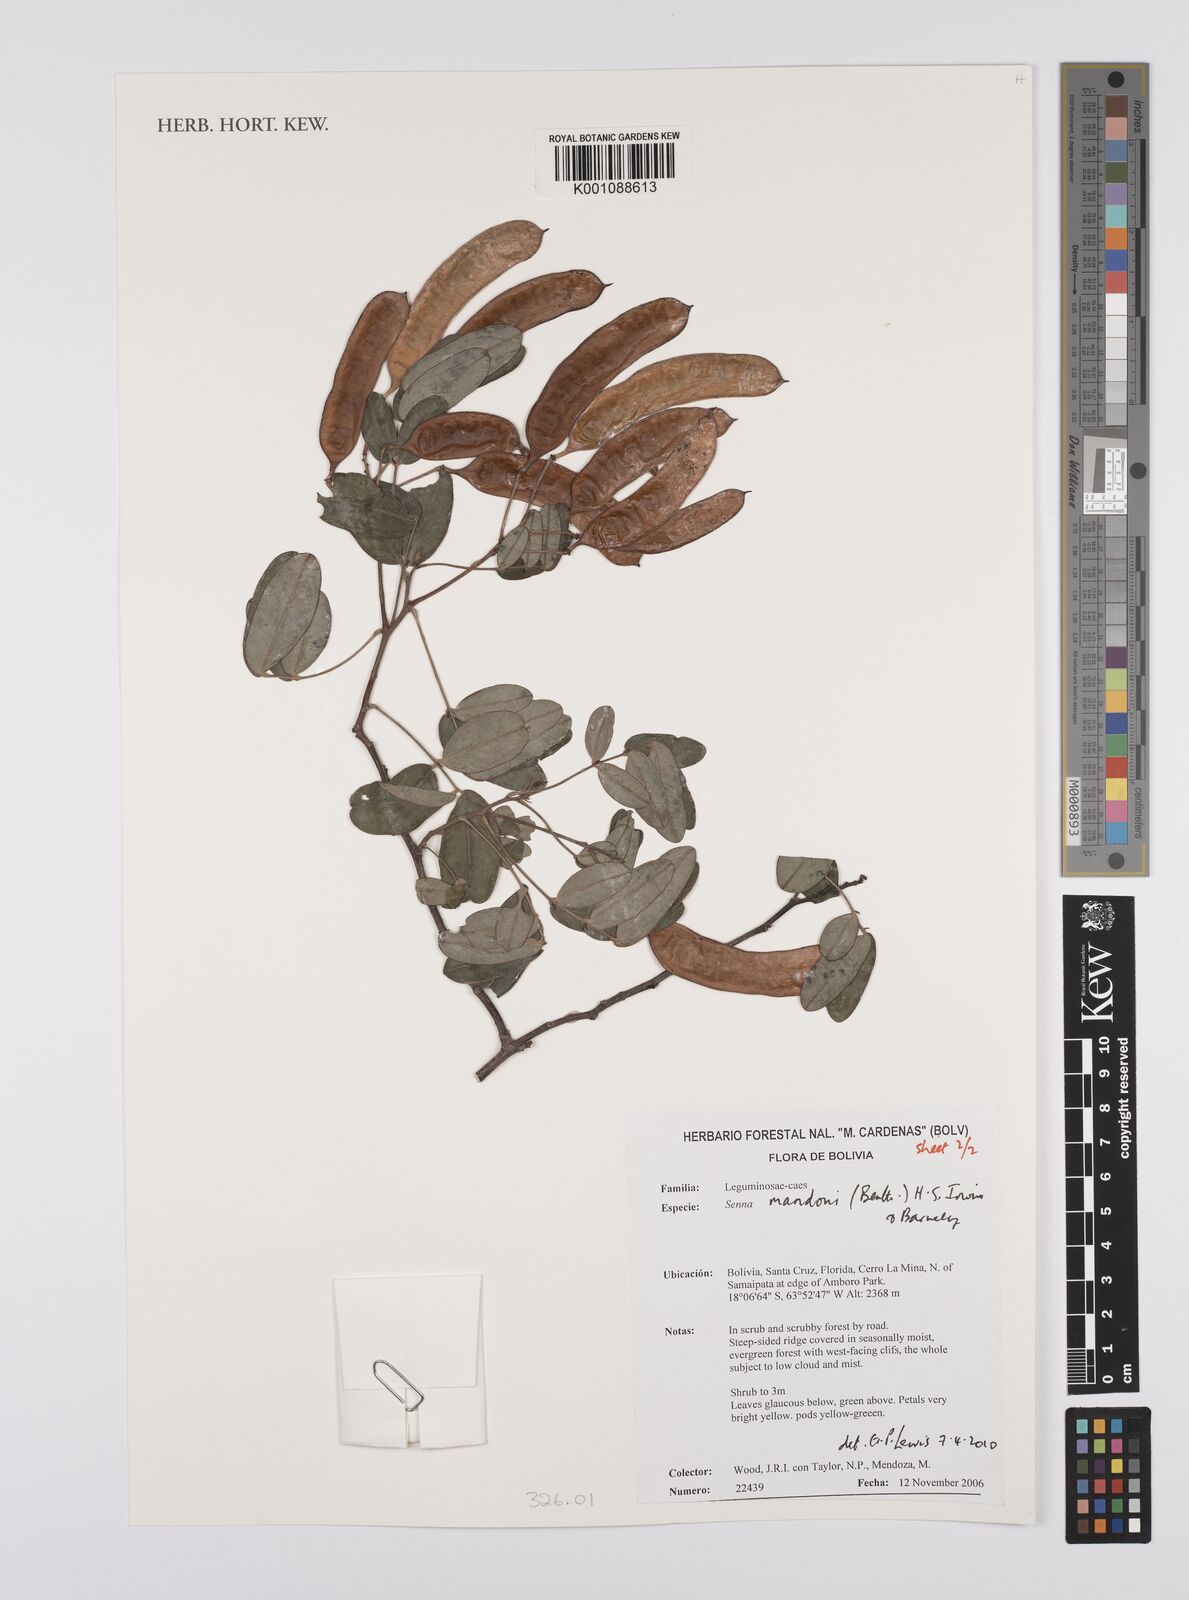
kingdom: Plantae
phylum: Tracheophyta
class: Magnoliopsida
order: Fabales
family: Fabaceae
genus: Senna
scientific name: Senna mandonii
